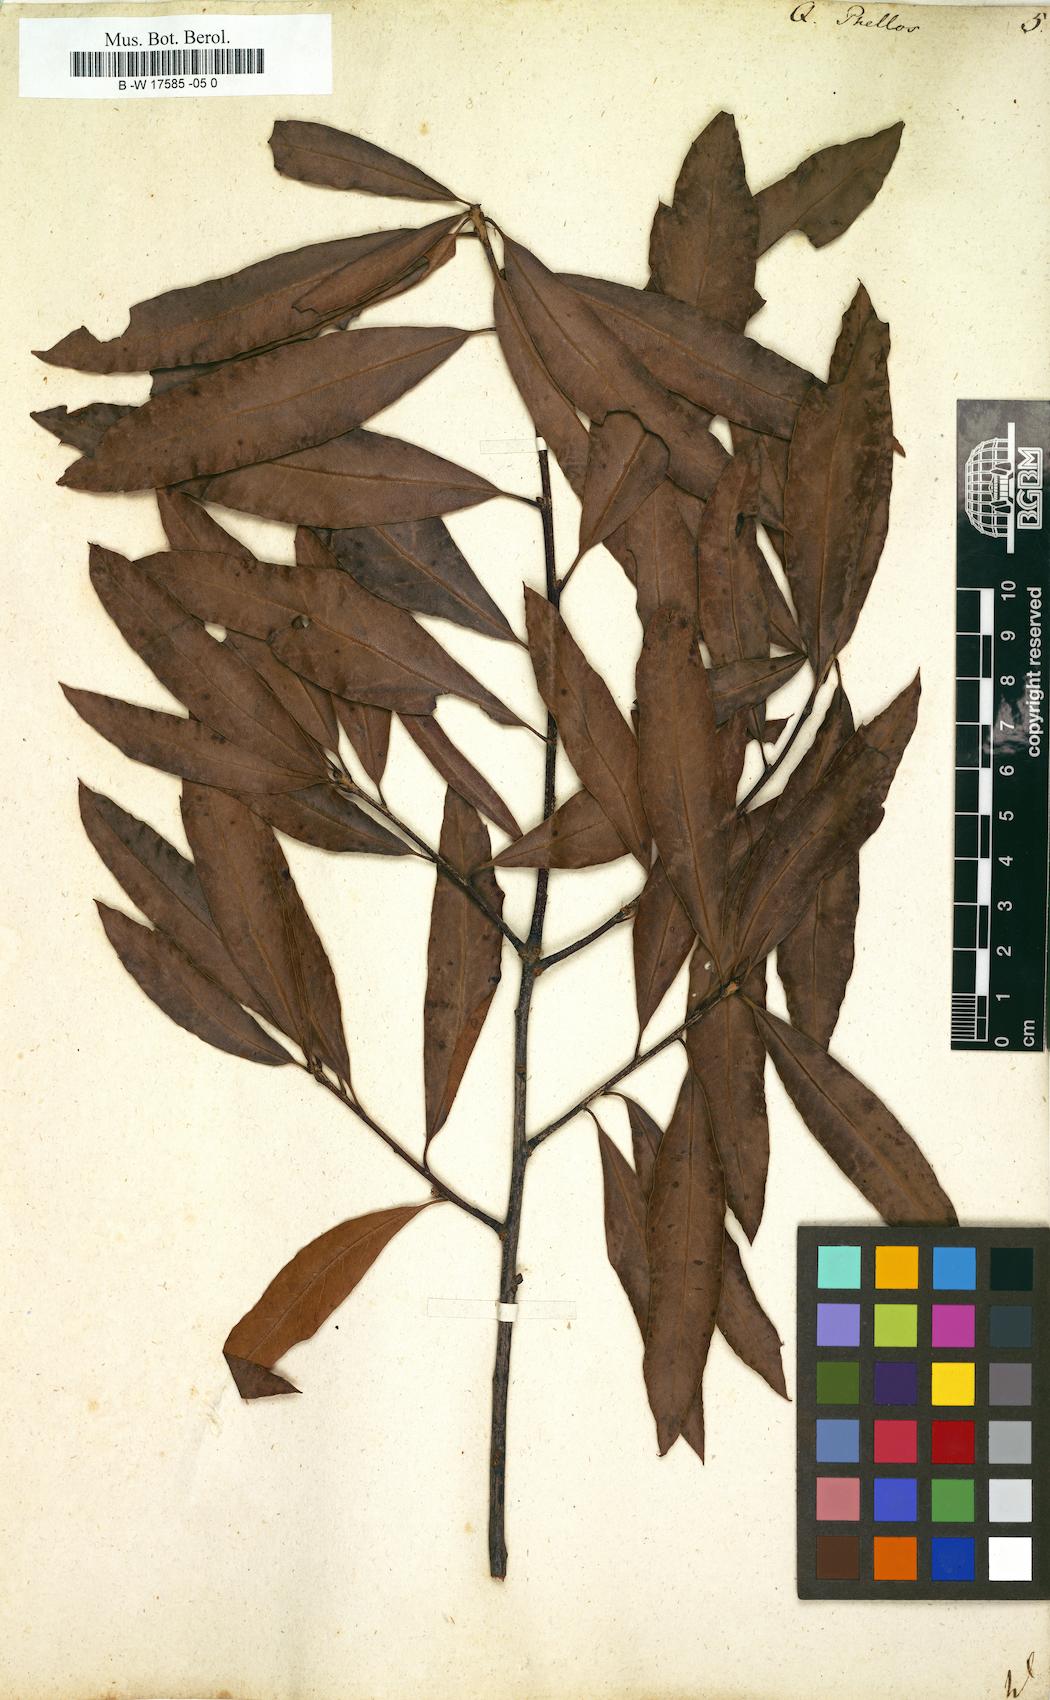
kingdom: Plantae
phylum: Tracheophyta
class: Magnoliopsida
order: Fagales
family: Fagaceae
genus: Quercus
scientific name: Quercus phellos
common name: Willow oak
